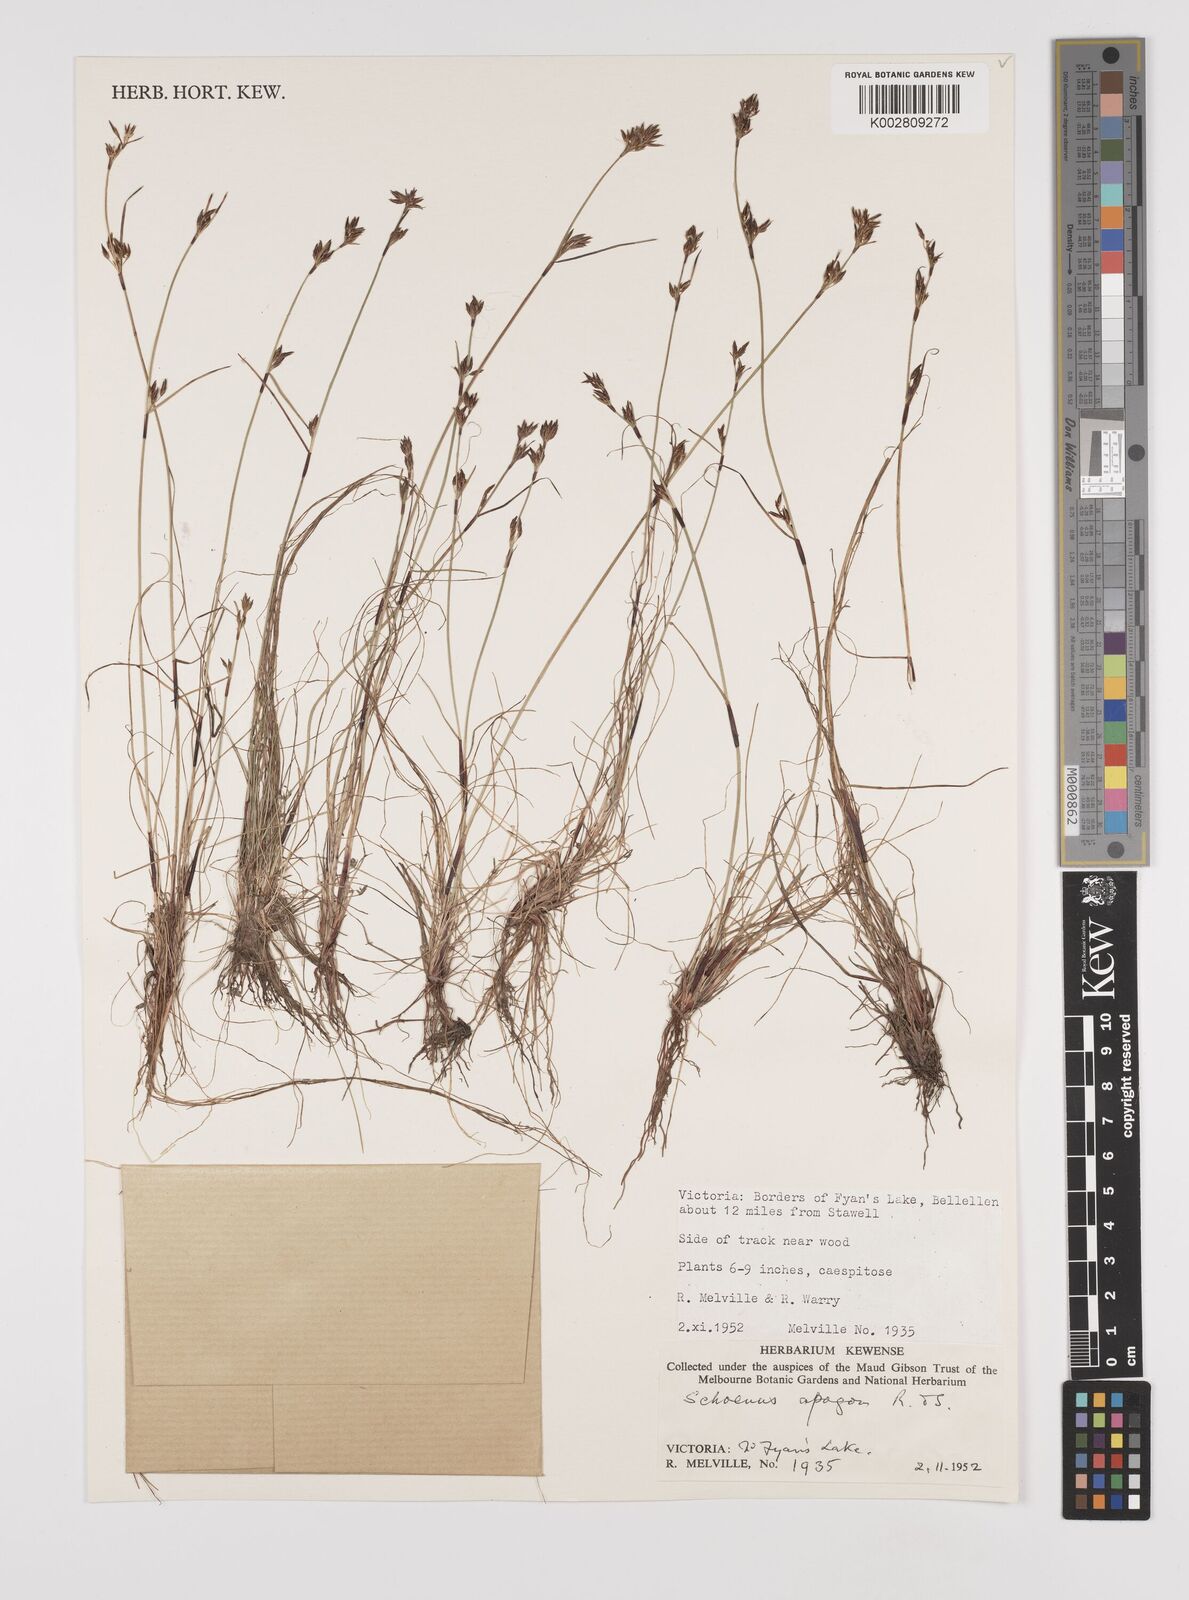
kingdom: Plantae
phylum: Tracheophyta
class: Liliopsida
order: Poales
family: Cyperaceae
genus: Schoenus
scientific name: Schoenus apogon
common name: Smooth bogrush
